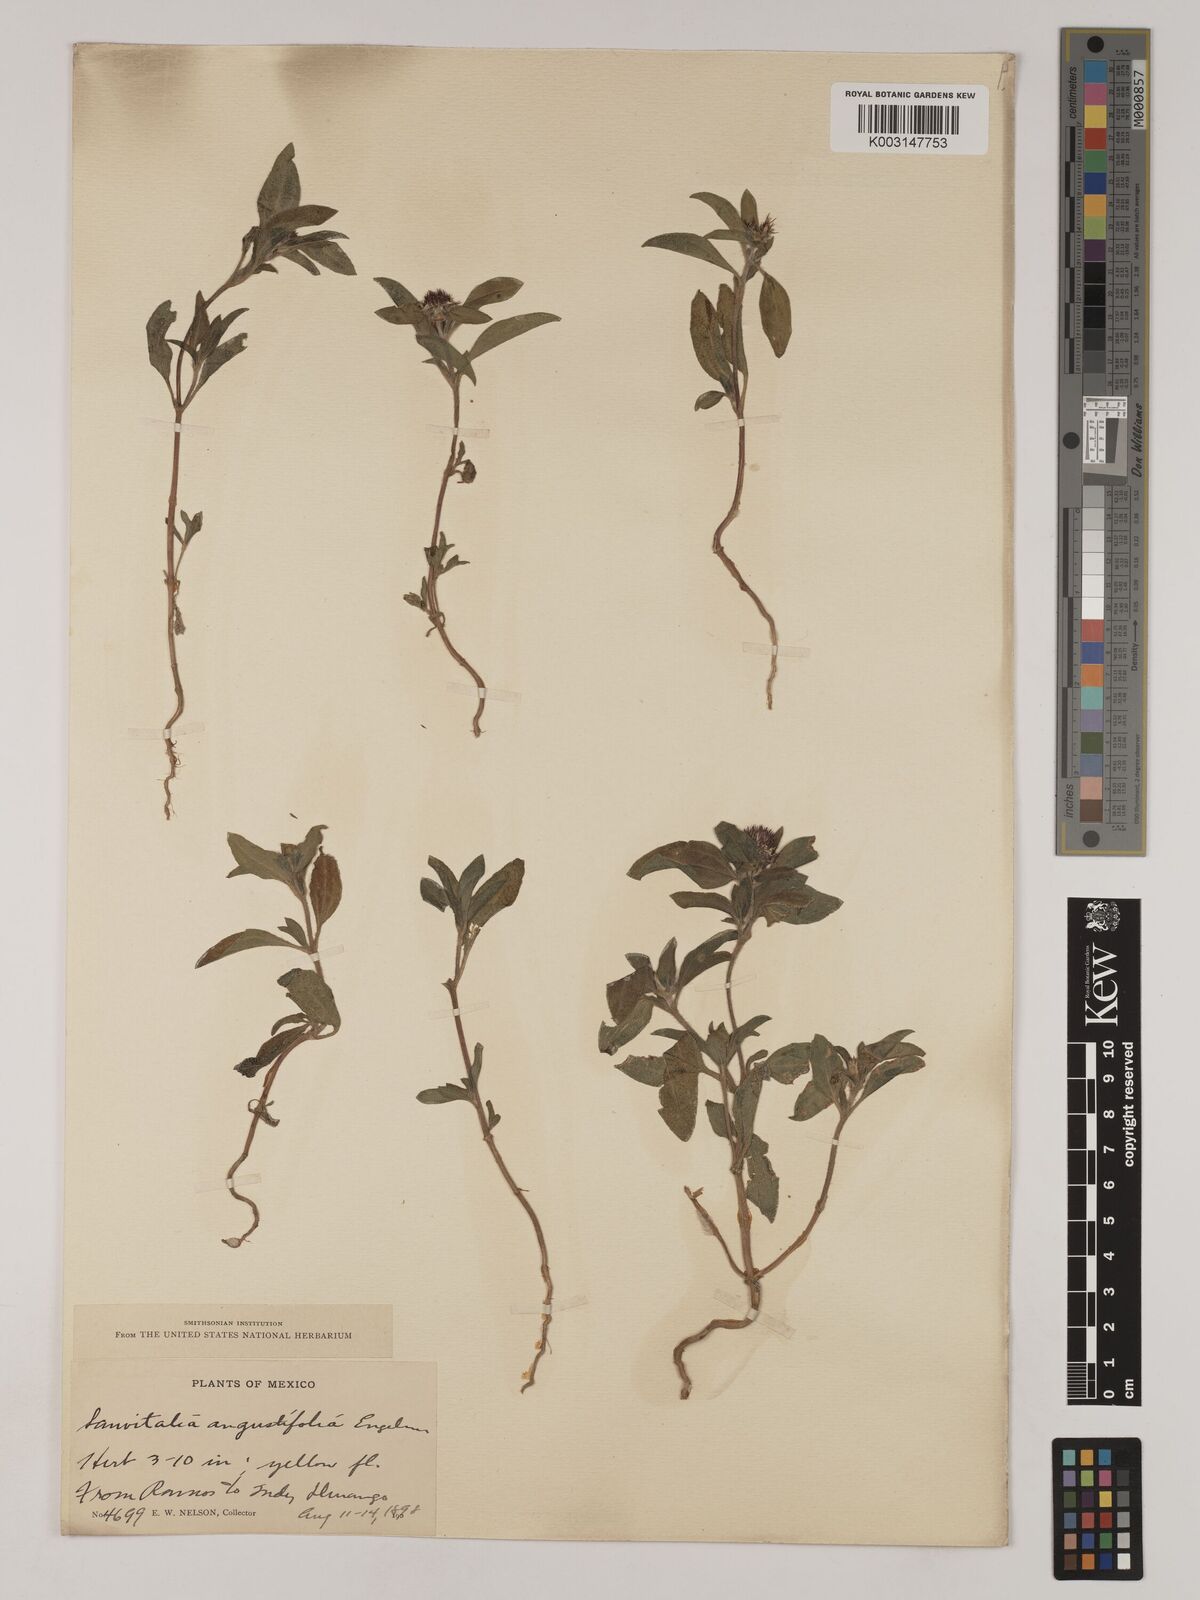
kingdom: Plantae
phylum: Tracheophyta
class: Magnoliopsida
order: Asterales
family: Asteraceae
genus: Sanvitalia
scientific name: Sanvitalia angustifolia
